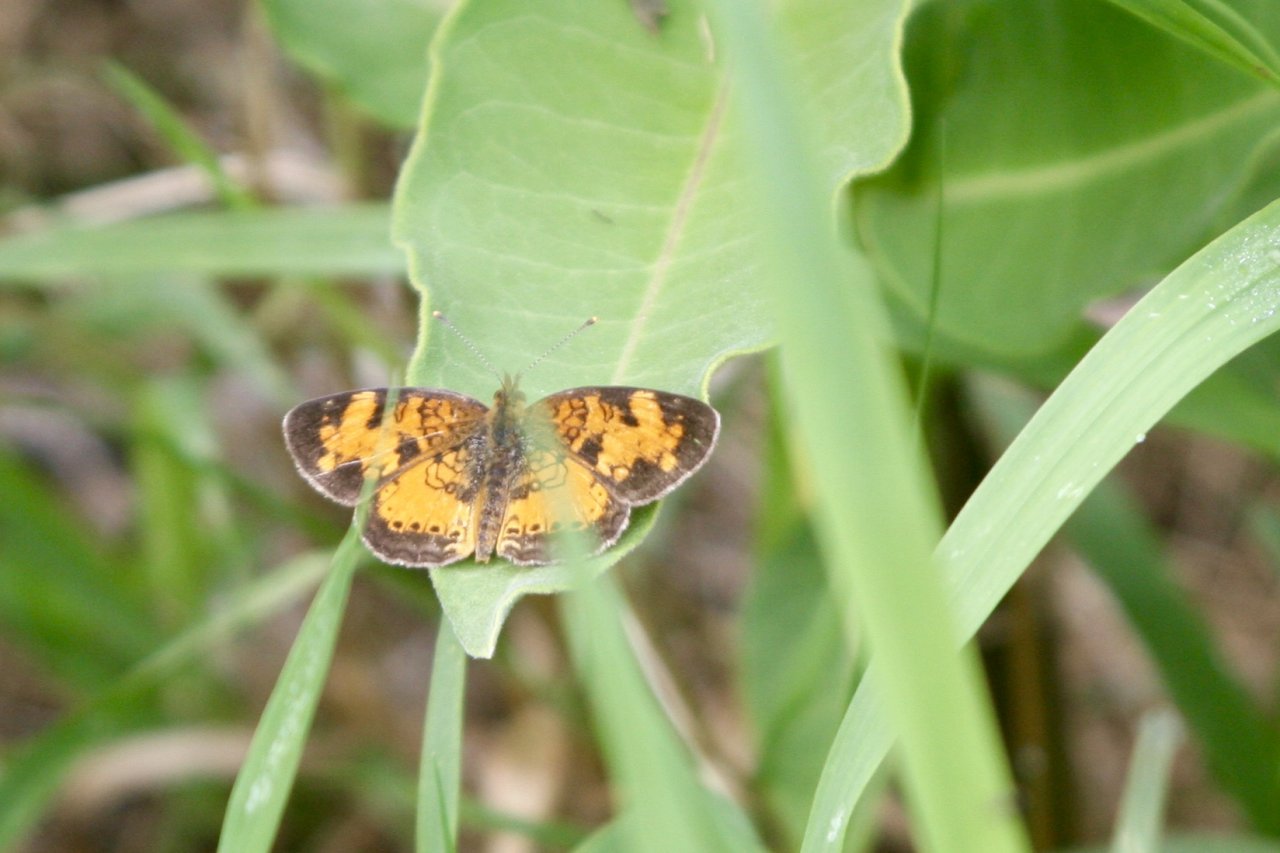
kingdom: Animalia
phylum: Arthropoda
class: Insecta
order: Lepidoptera
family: Nymphalidae
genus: Phyciodes
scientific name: Phyciodes tharos
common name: Northern Crescent
